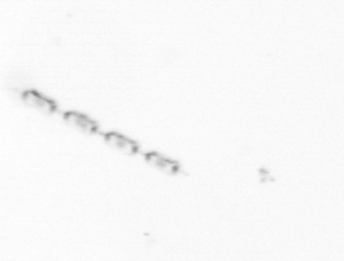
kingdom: Chromista
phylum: Ochrophyta
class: Bacillariophyceae
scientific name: Bacillariophyceae
